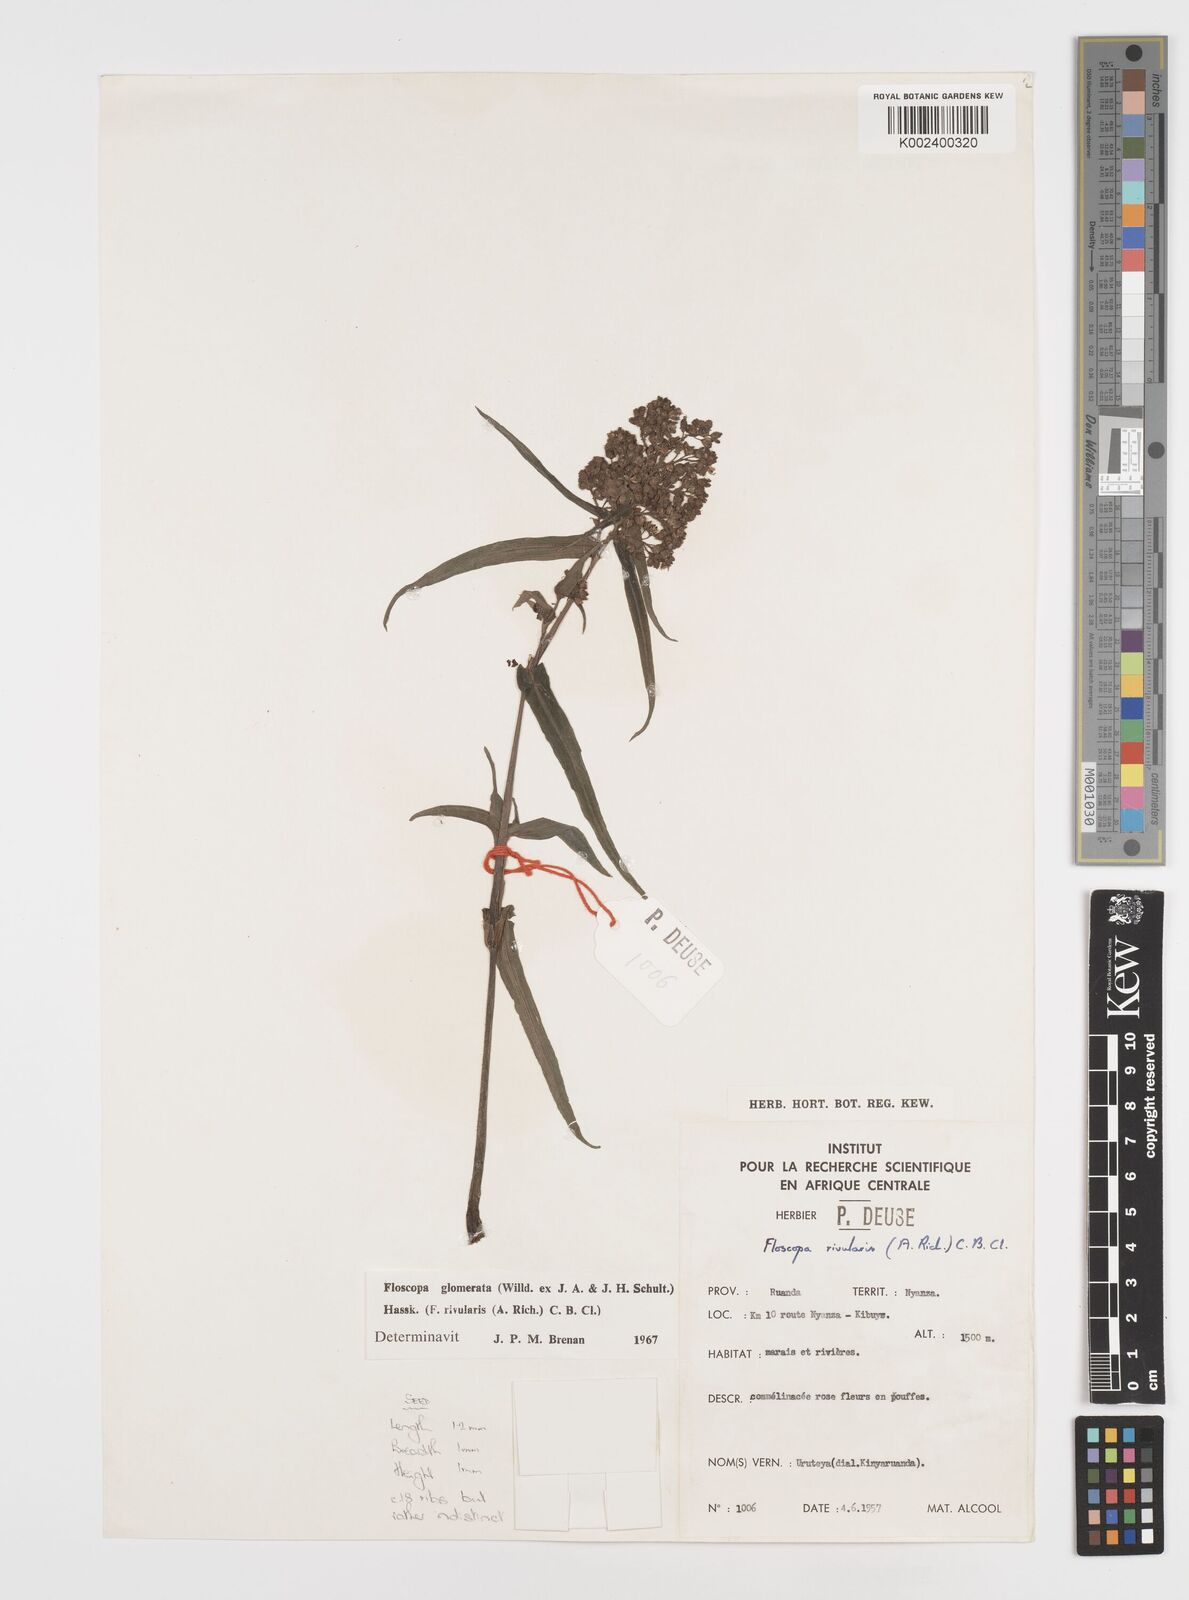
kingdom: Plantae
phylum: Tracheophyta
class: Liliopsida
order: Commelinales
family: Commelinaceae
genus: Floscopa
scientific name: Floscopa glomerata
